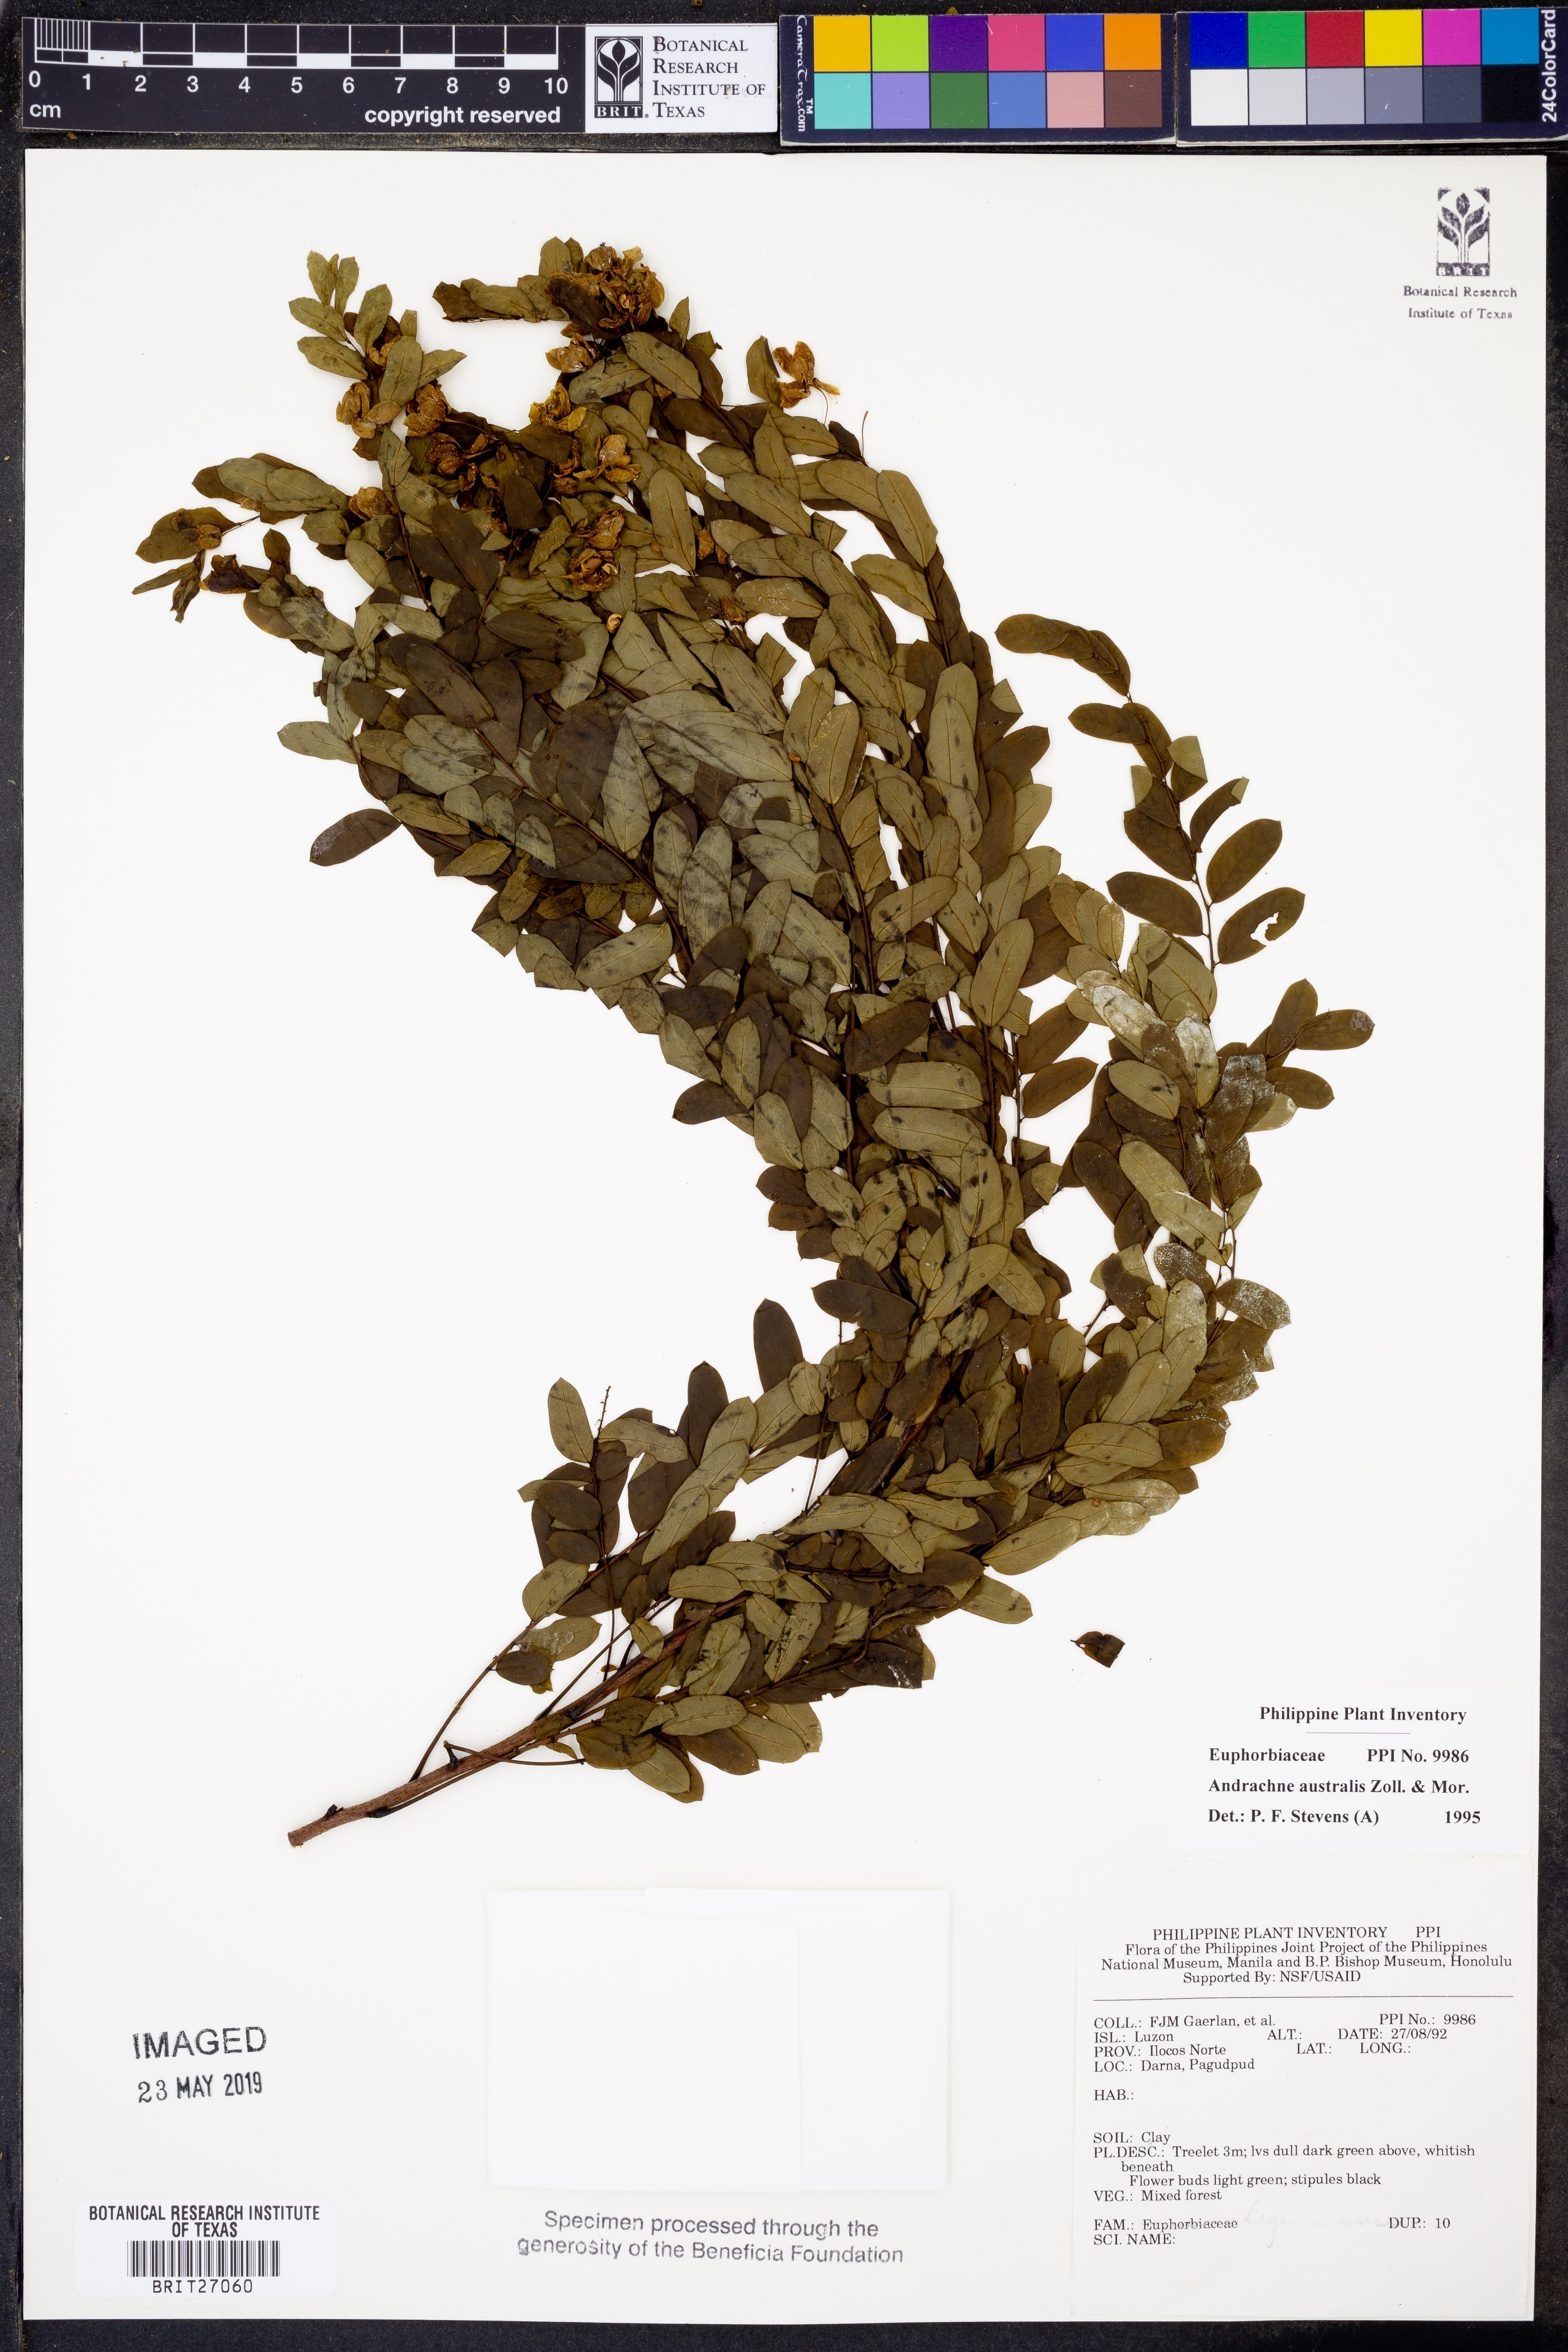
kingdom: Plantae
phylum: Tracheophyta
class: Magnoliopsida
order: Malpighiales
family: Phyllanthaceae
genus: Leptopus
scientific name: Leptopus australis
